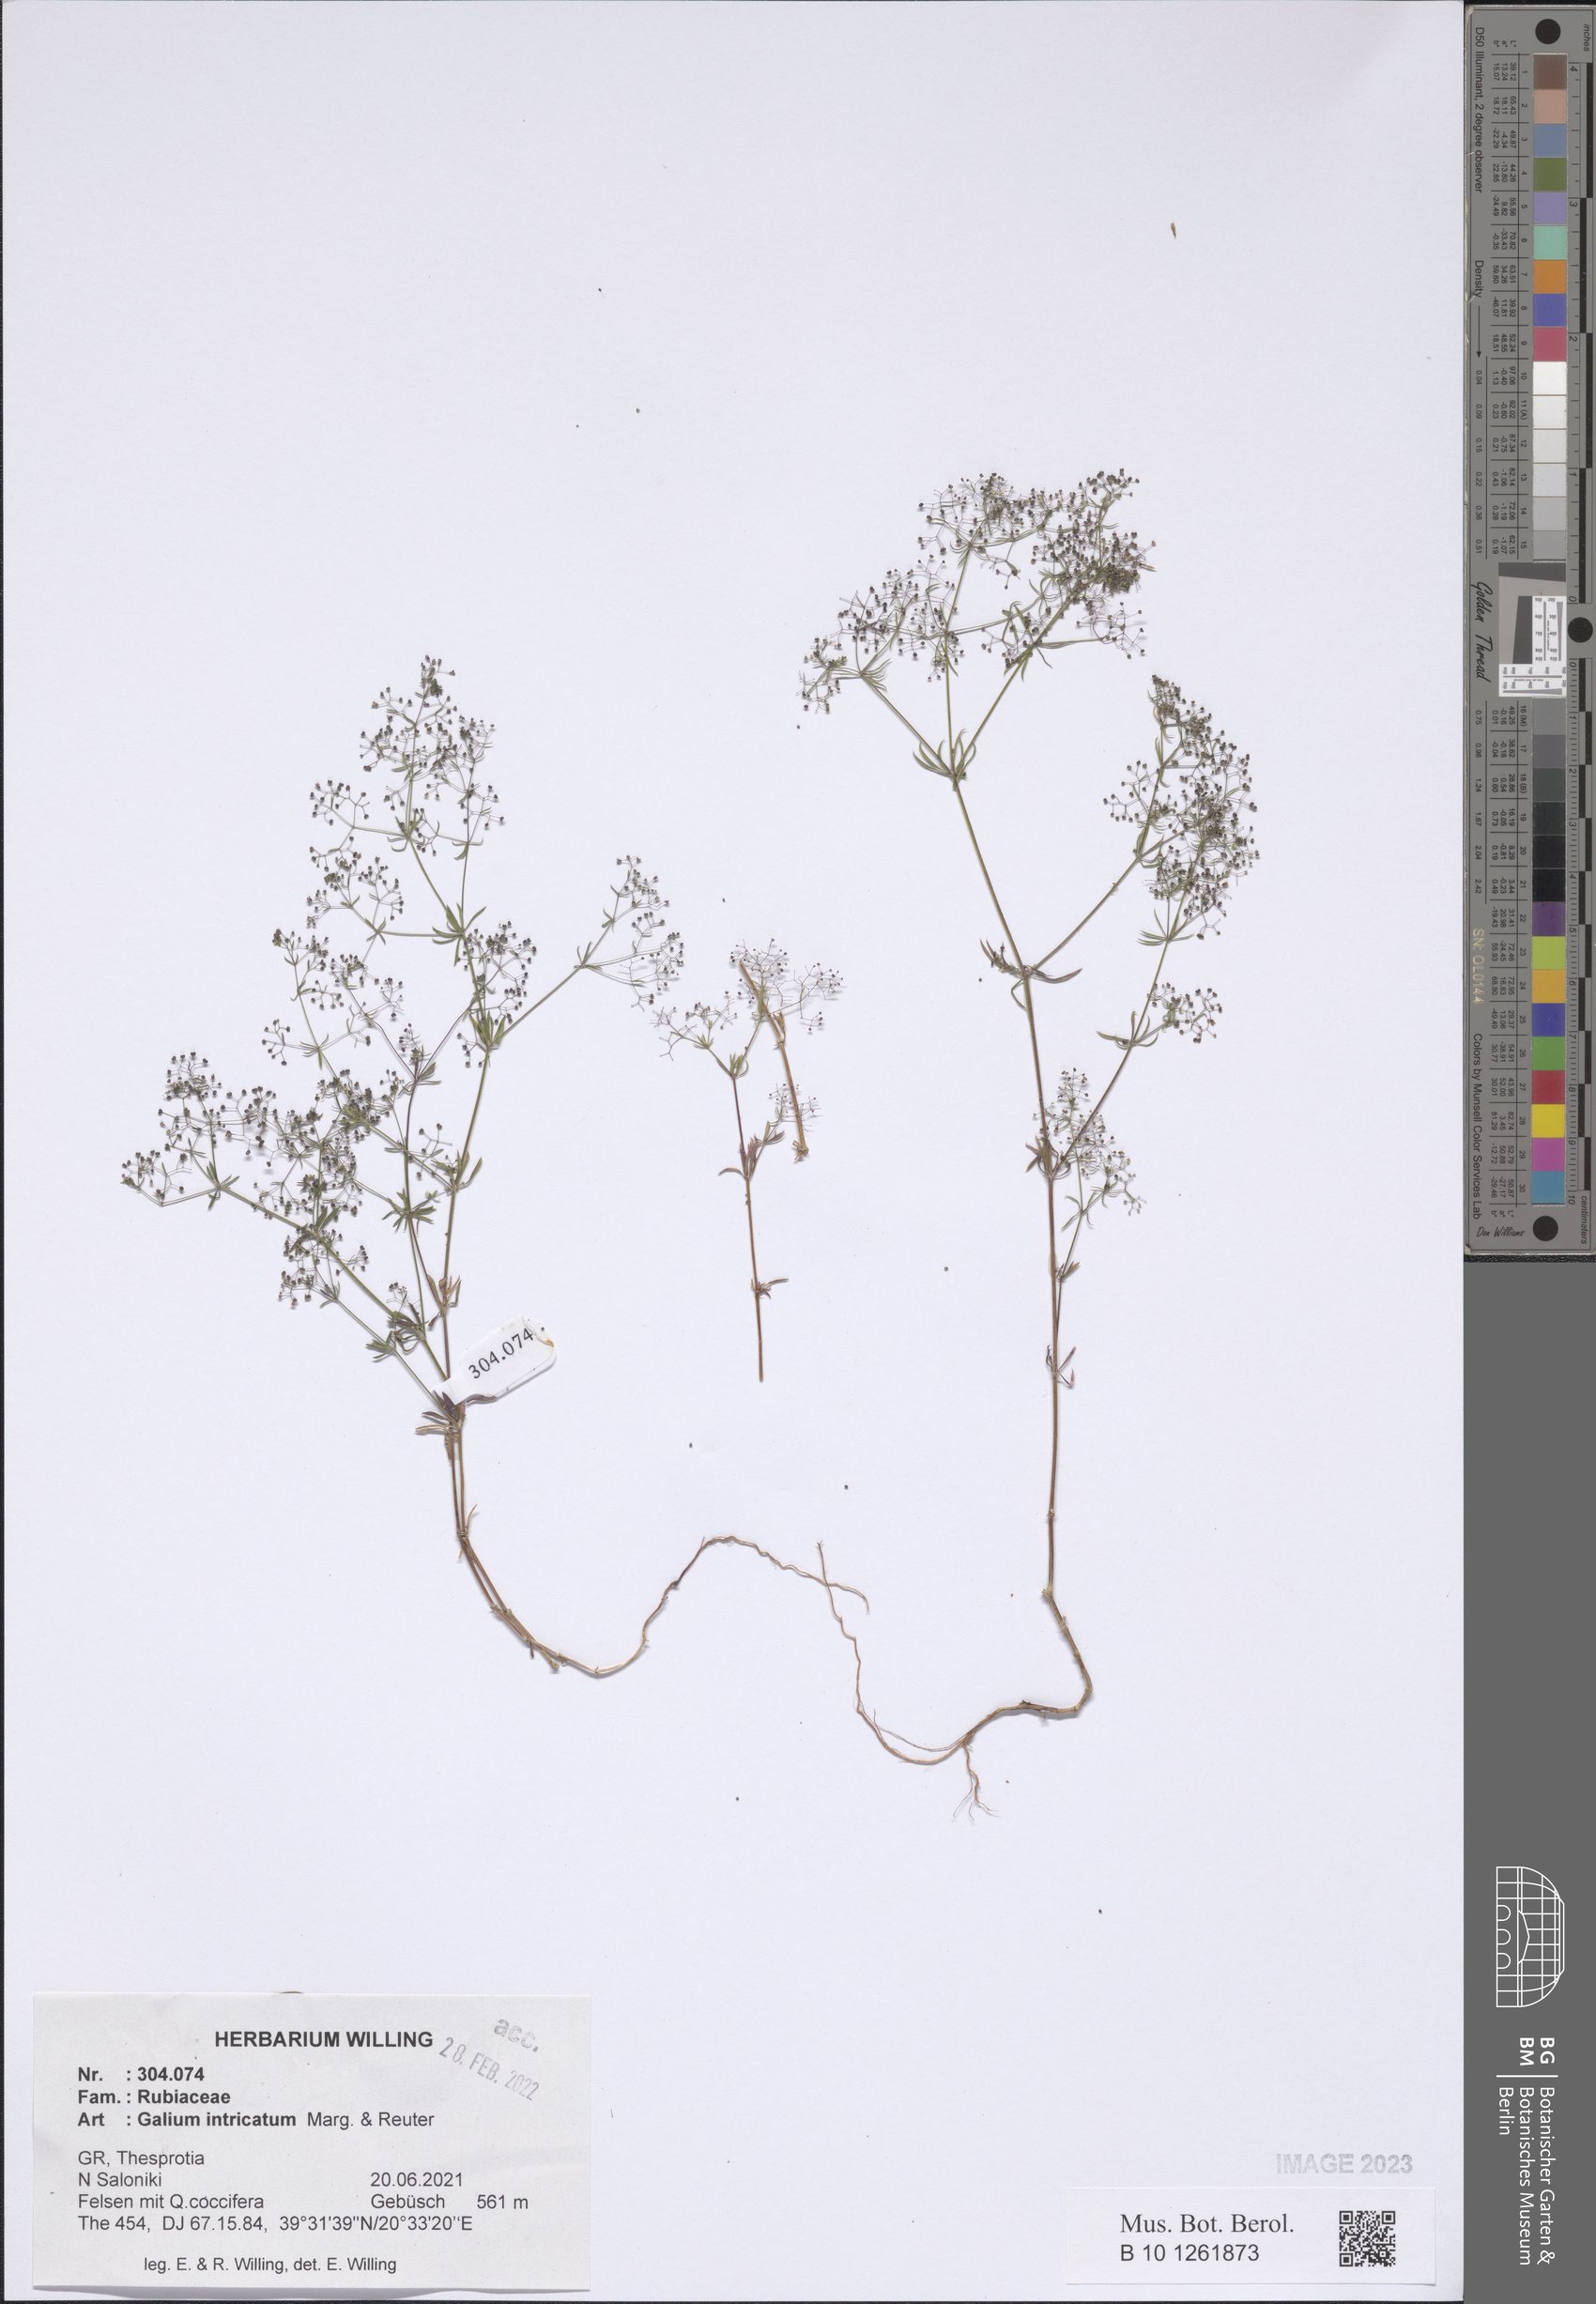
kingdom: Plantae
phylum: Tracheophyta
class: Magnoliopsida
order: Gentianales
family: Rubiaceae
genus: Galium
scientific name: Galium intricatum
